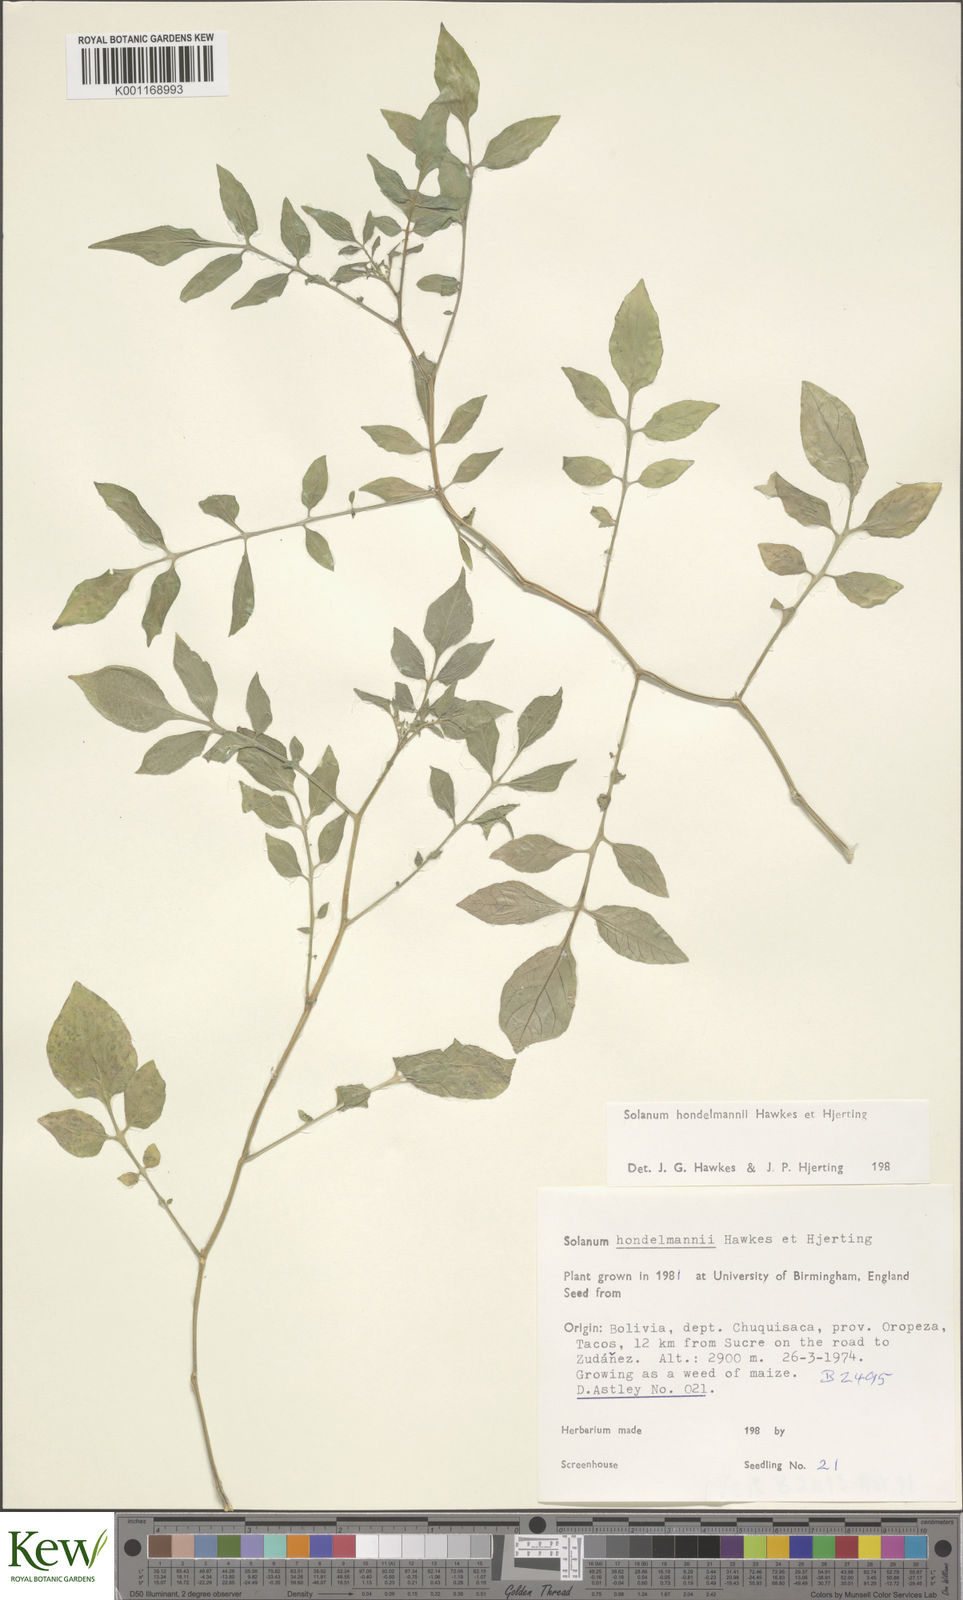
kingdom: Plantae
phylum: Tracheophyta
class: Magnoliopsida
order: Solanales
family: Solanaceae
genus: Solanum
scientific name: Solanum brevicaule
